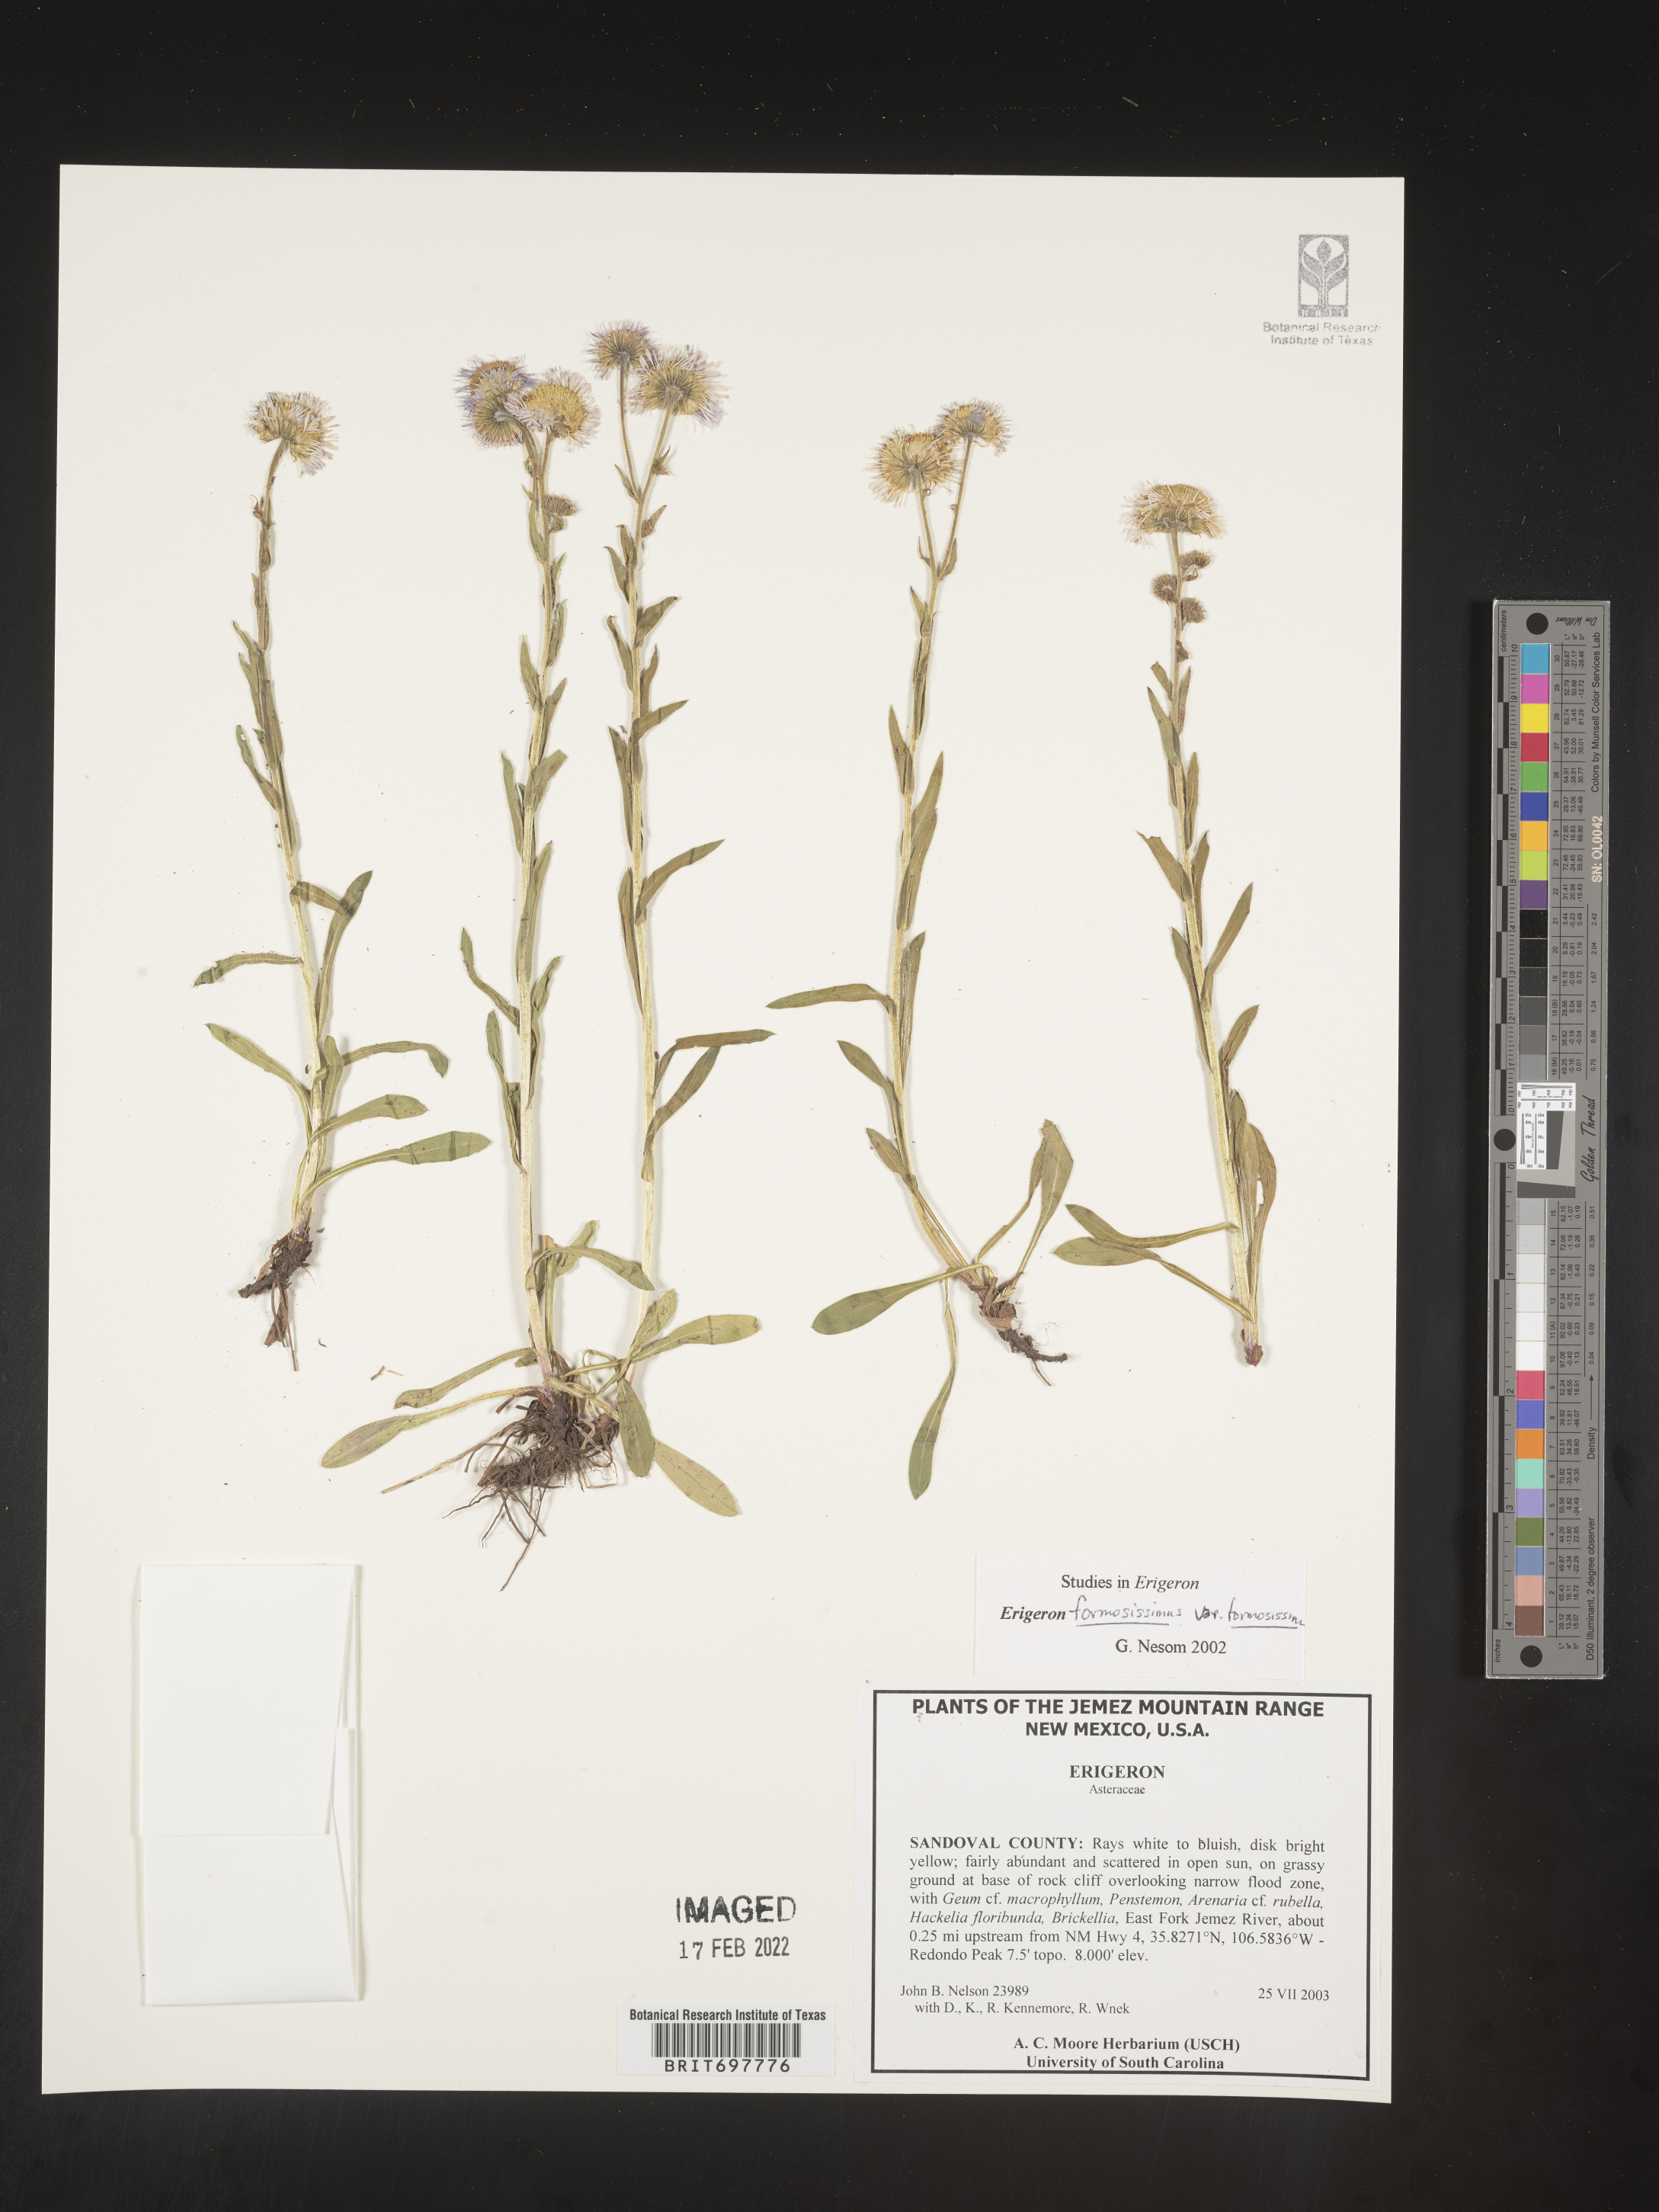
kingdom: Plantae
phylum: Tracheophyta
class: Magnoliopsida
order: Asterales
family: Asteraceae
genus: Erigeron
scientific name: Erigeron formosissimus
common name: Beautiful fleabane
